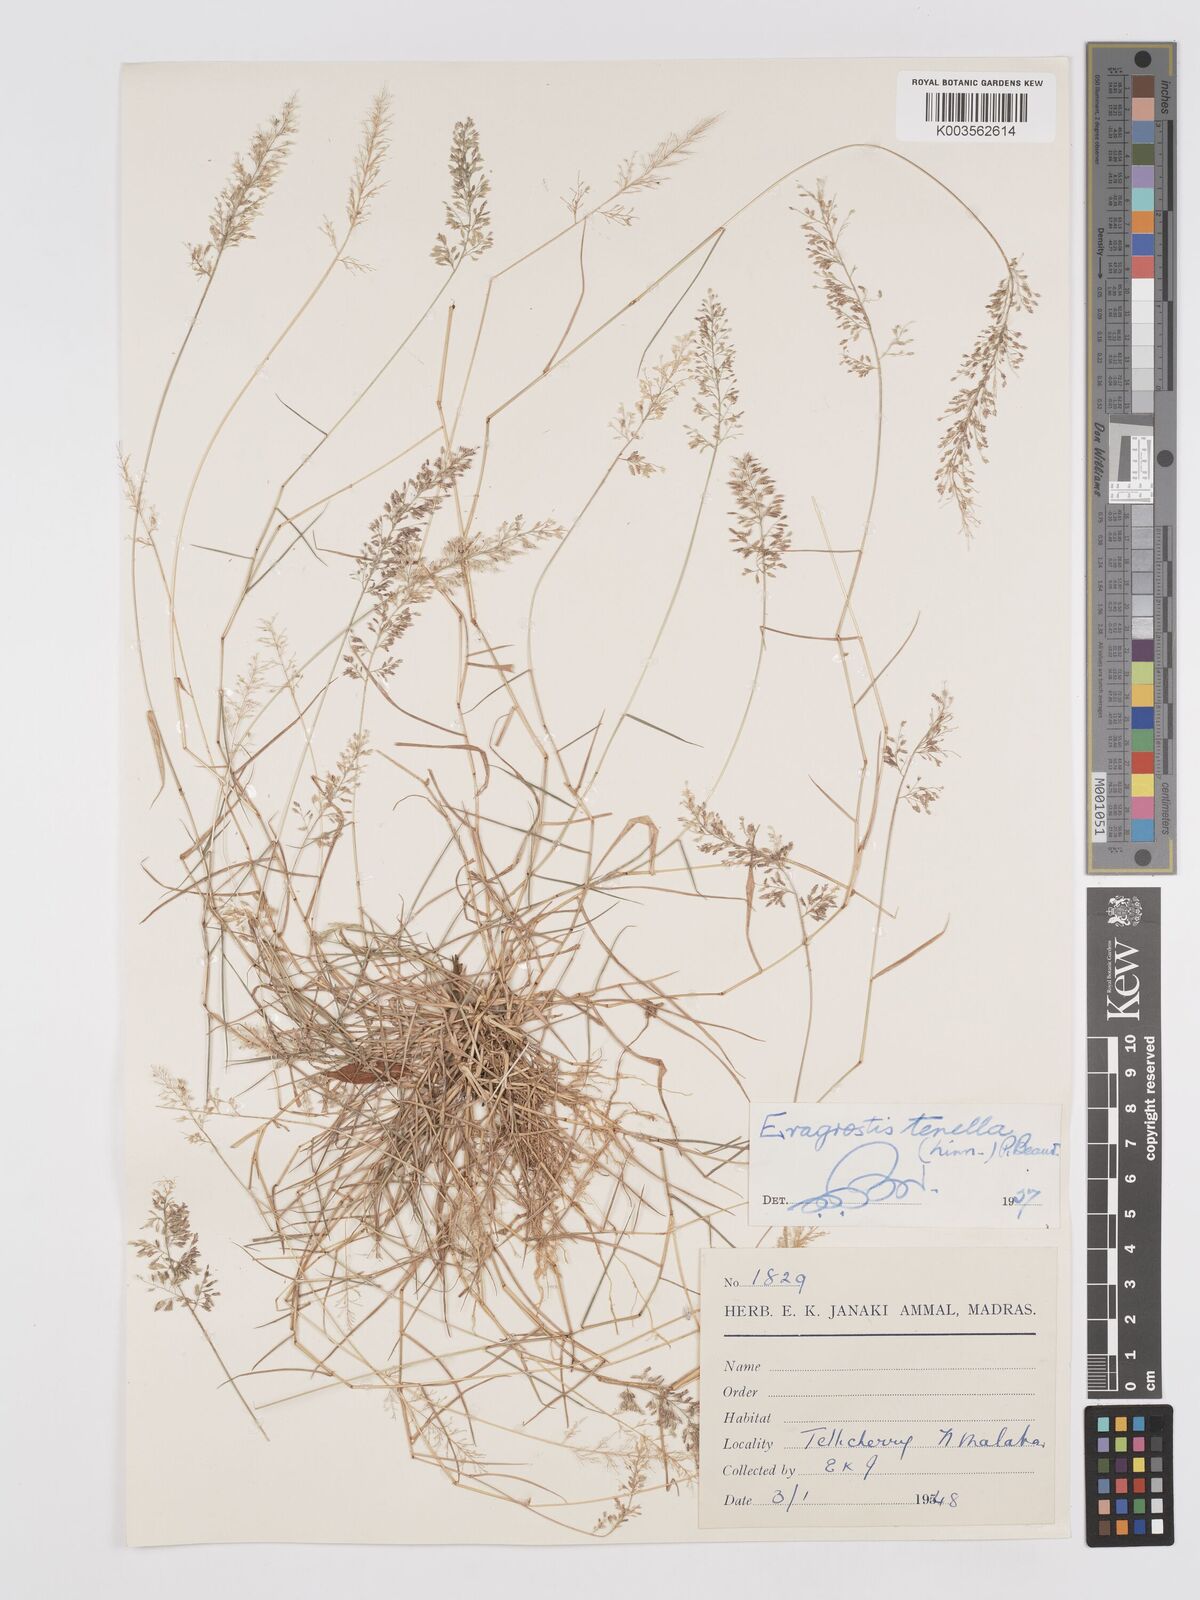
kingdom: Plantae
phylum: Tracheophyta
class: Liliopsida
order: Poales
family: Poaceae
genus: Eragrostis
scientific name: Eragrostis tenella
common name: Japanese lovegrass
